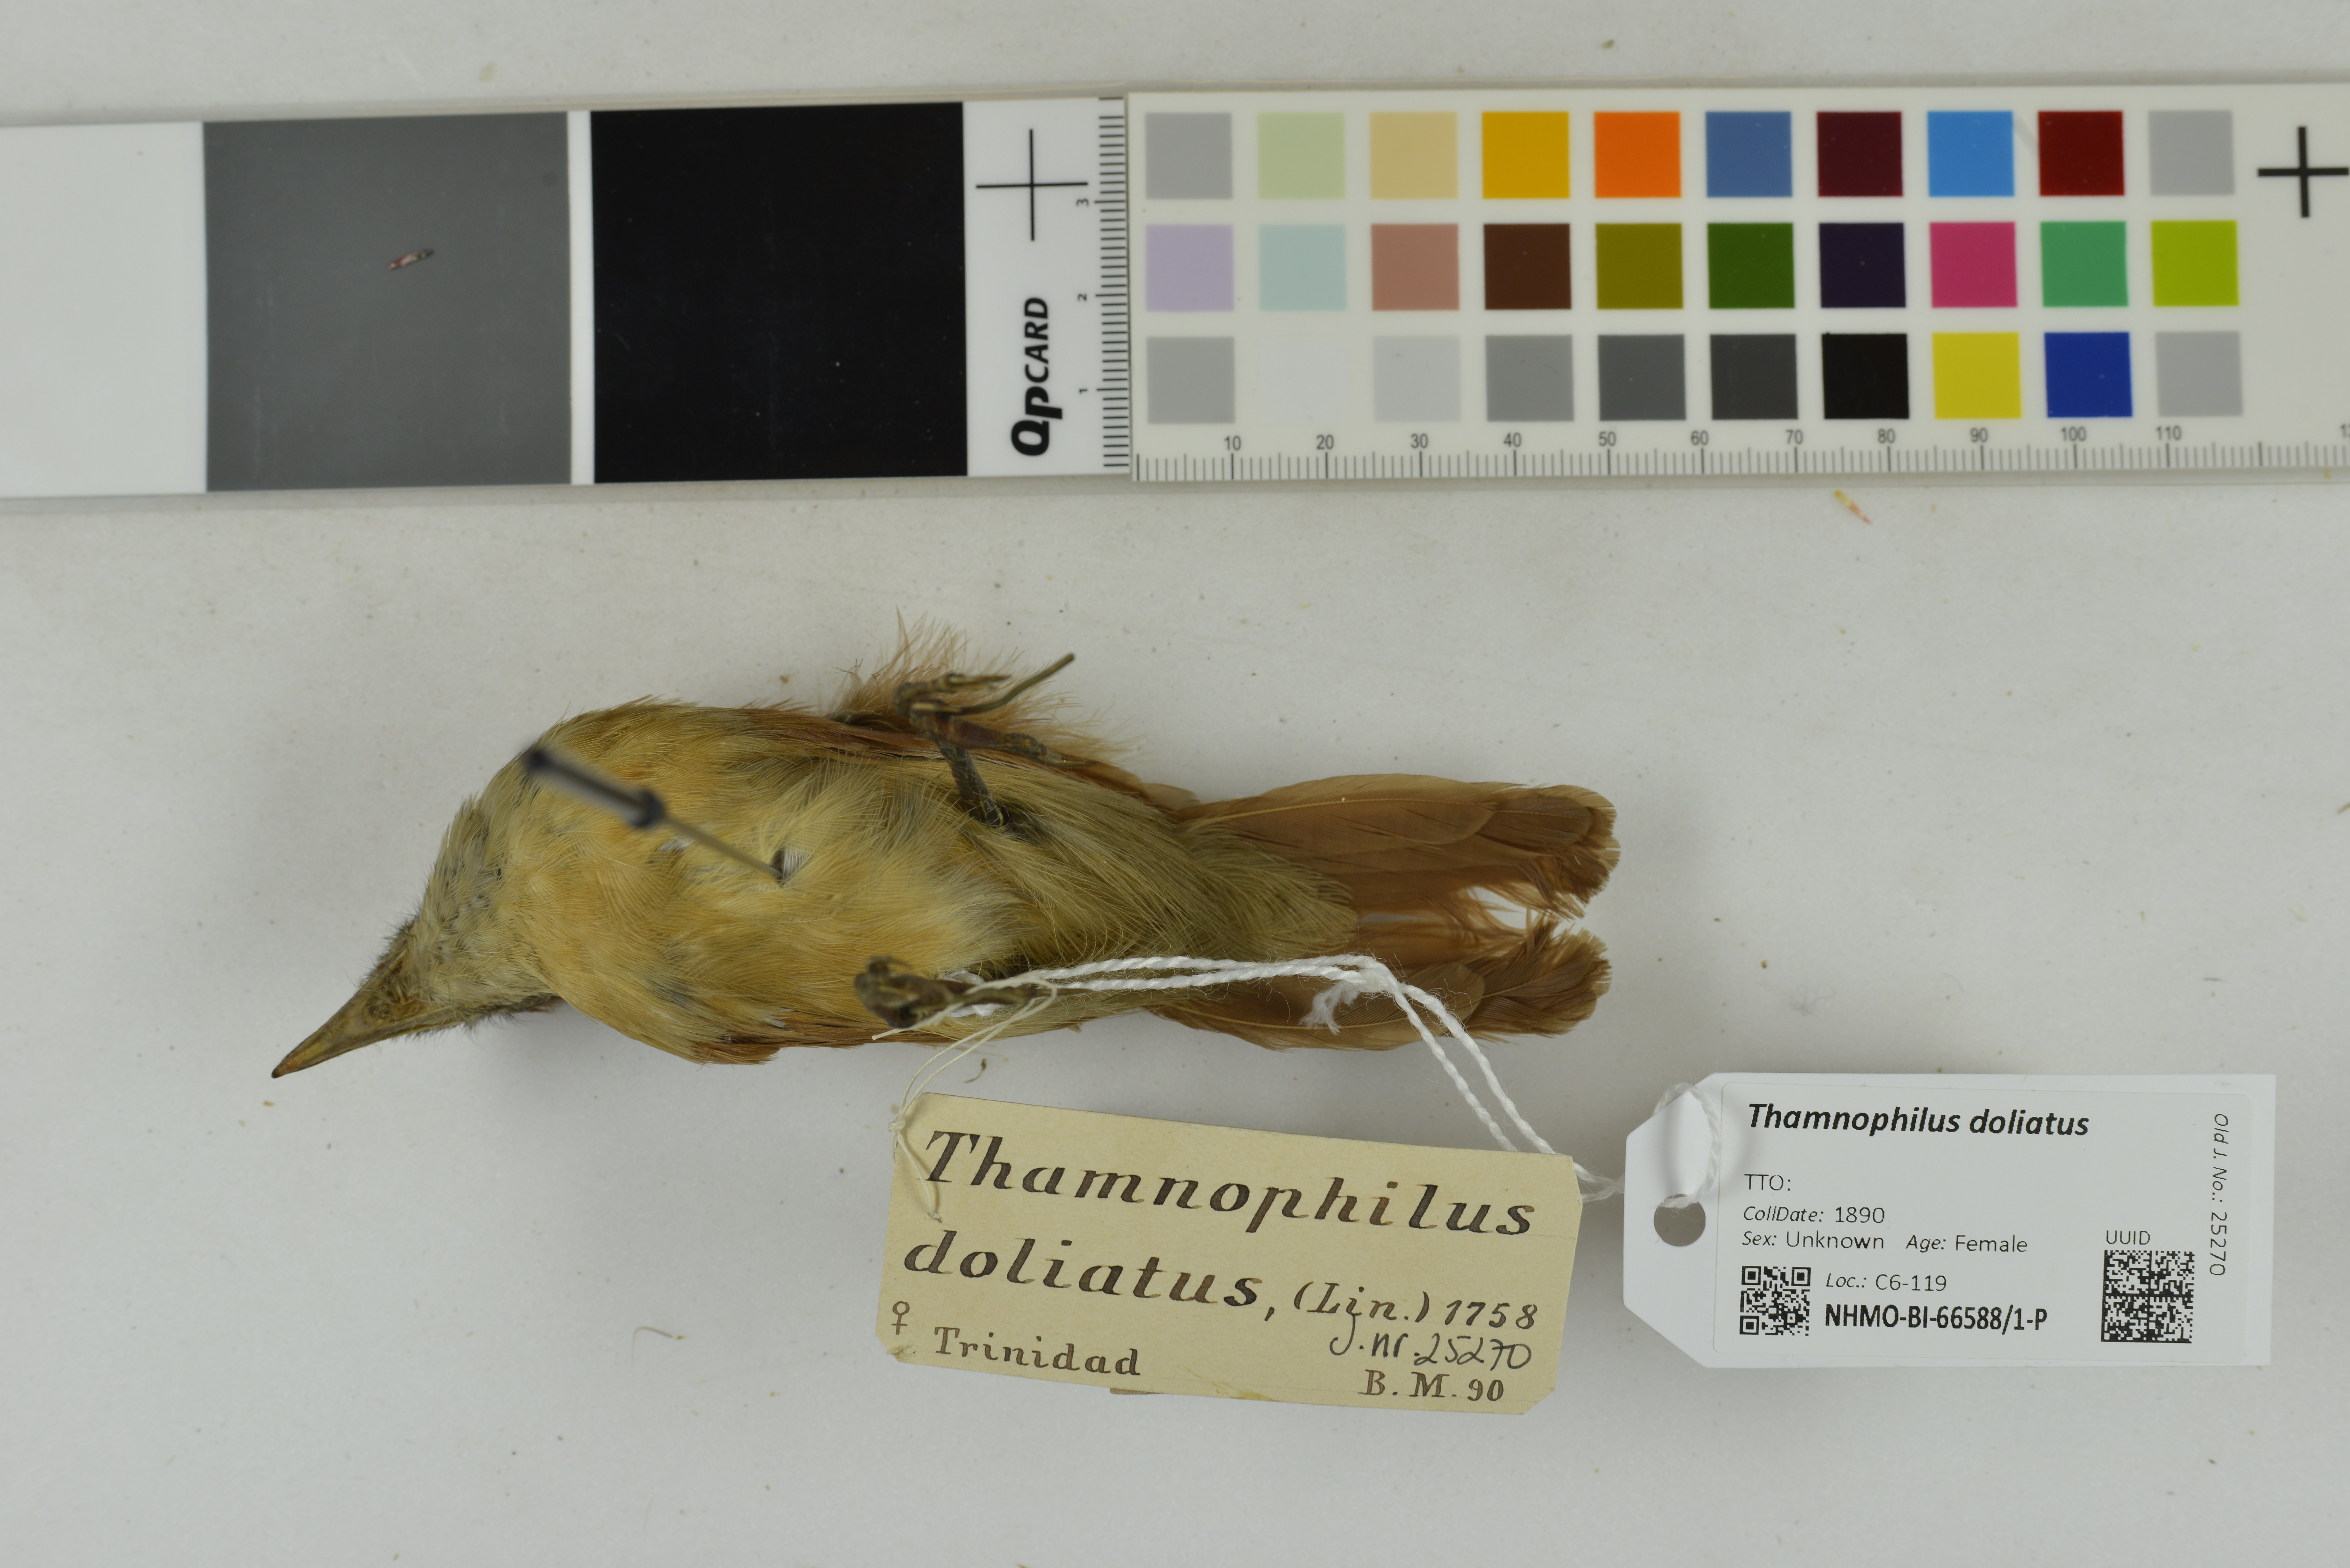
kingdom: Animalia
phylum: Chordata
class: Aves
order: Passeriformes
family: Thamnophilidae
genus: Thamnophilus
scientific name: Thamnophilus doliatus
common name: Barred antshrike
